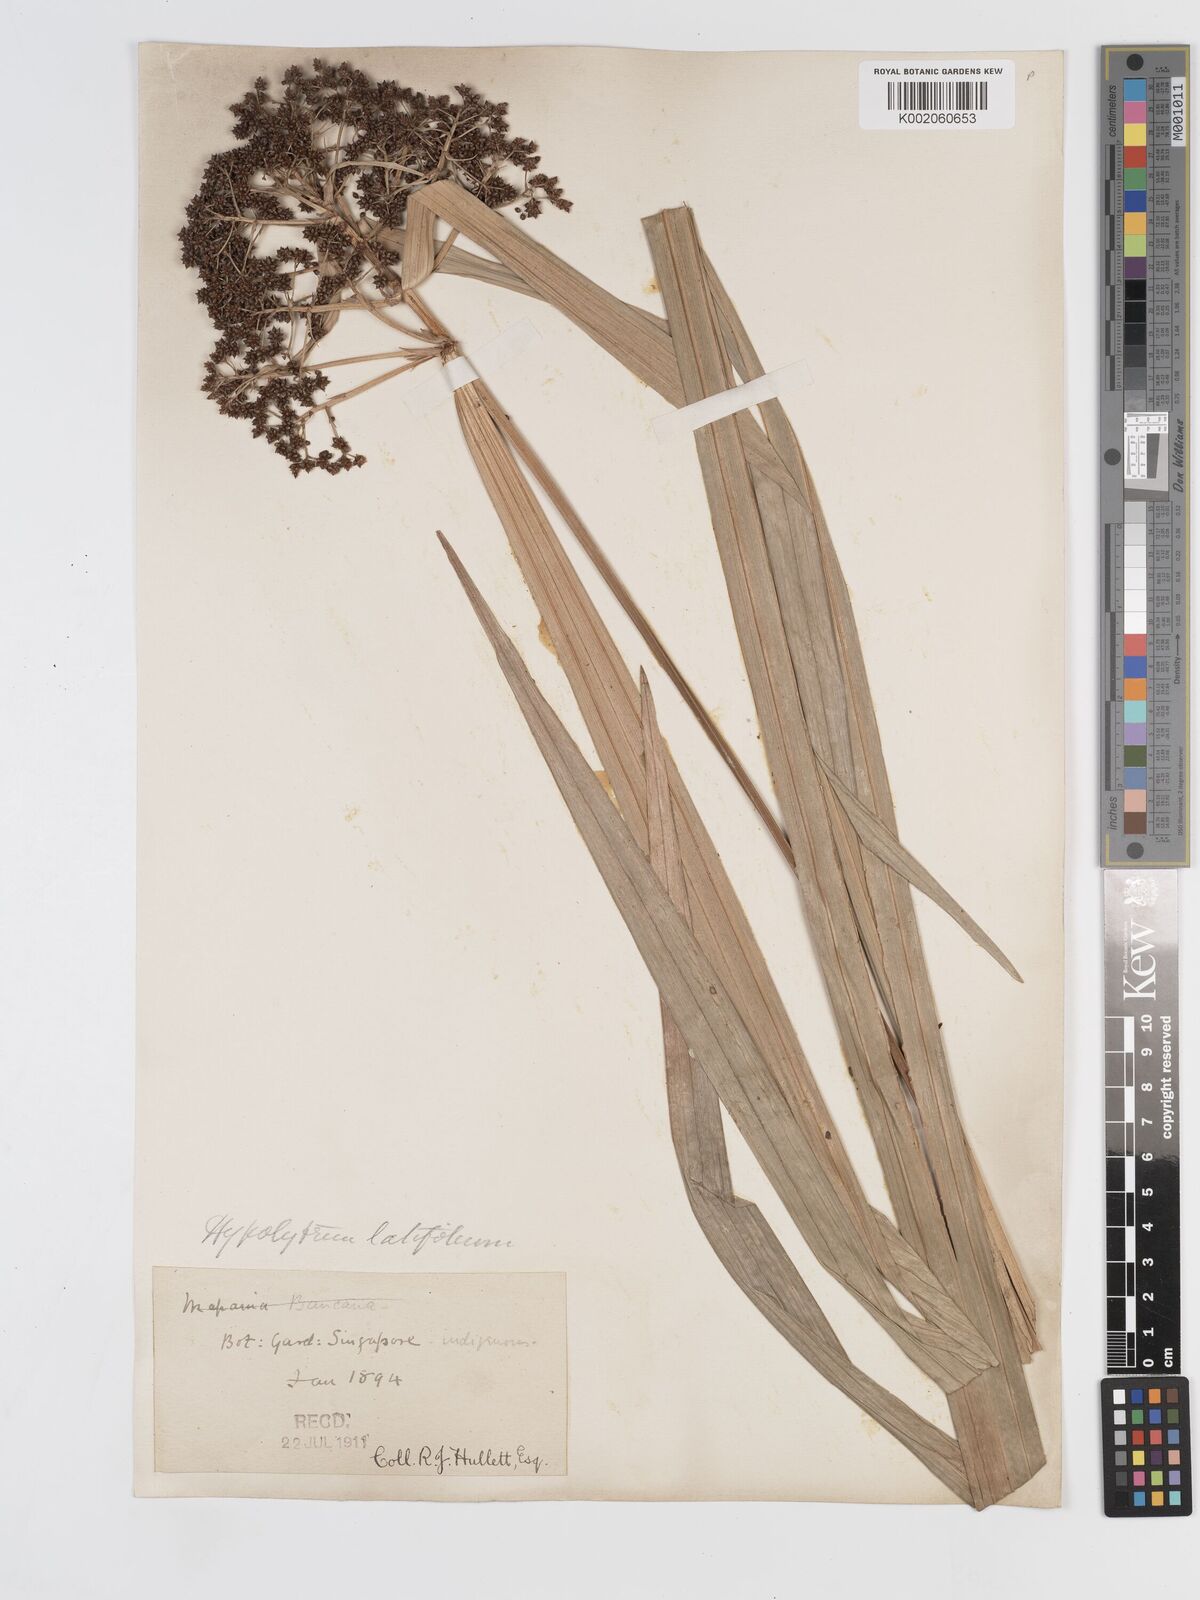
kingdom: Plantae
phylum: Tracheophyta
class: Liliopsida
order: Poales
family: Cyperaceae
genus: Hypolytrum
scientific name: Hypolytrum nemorum
